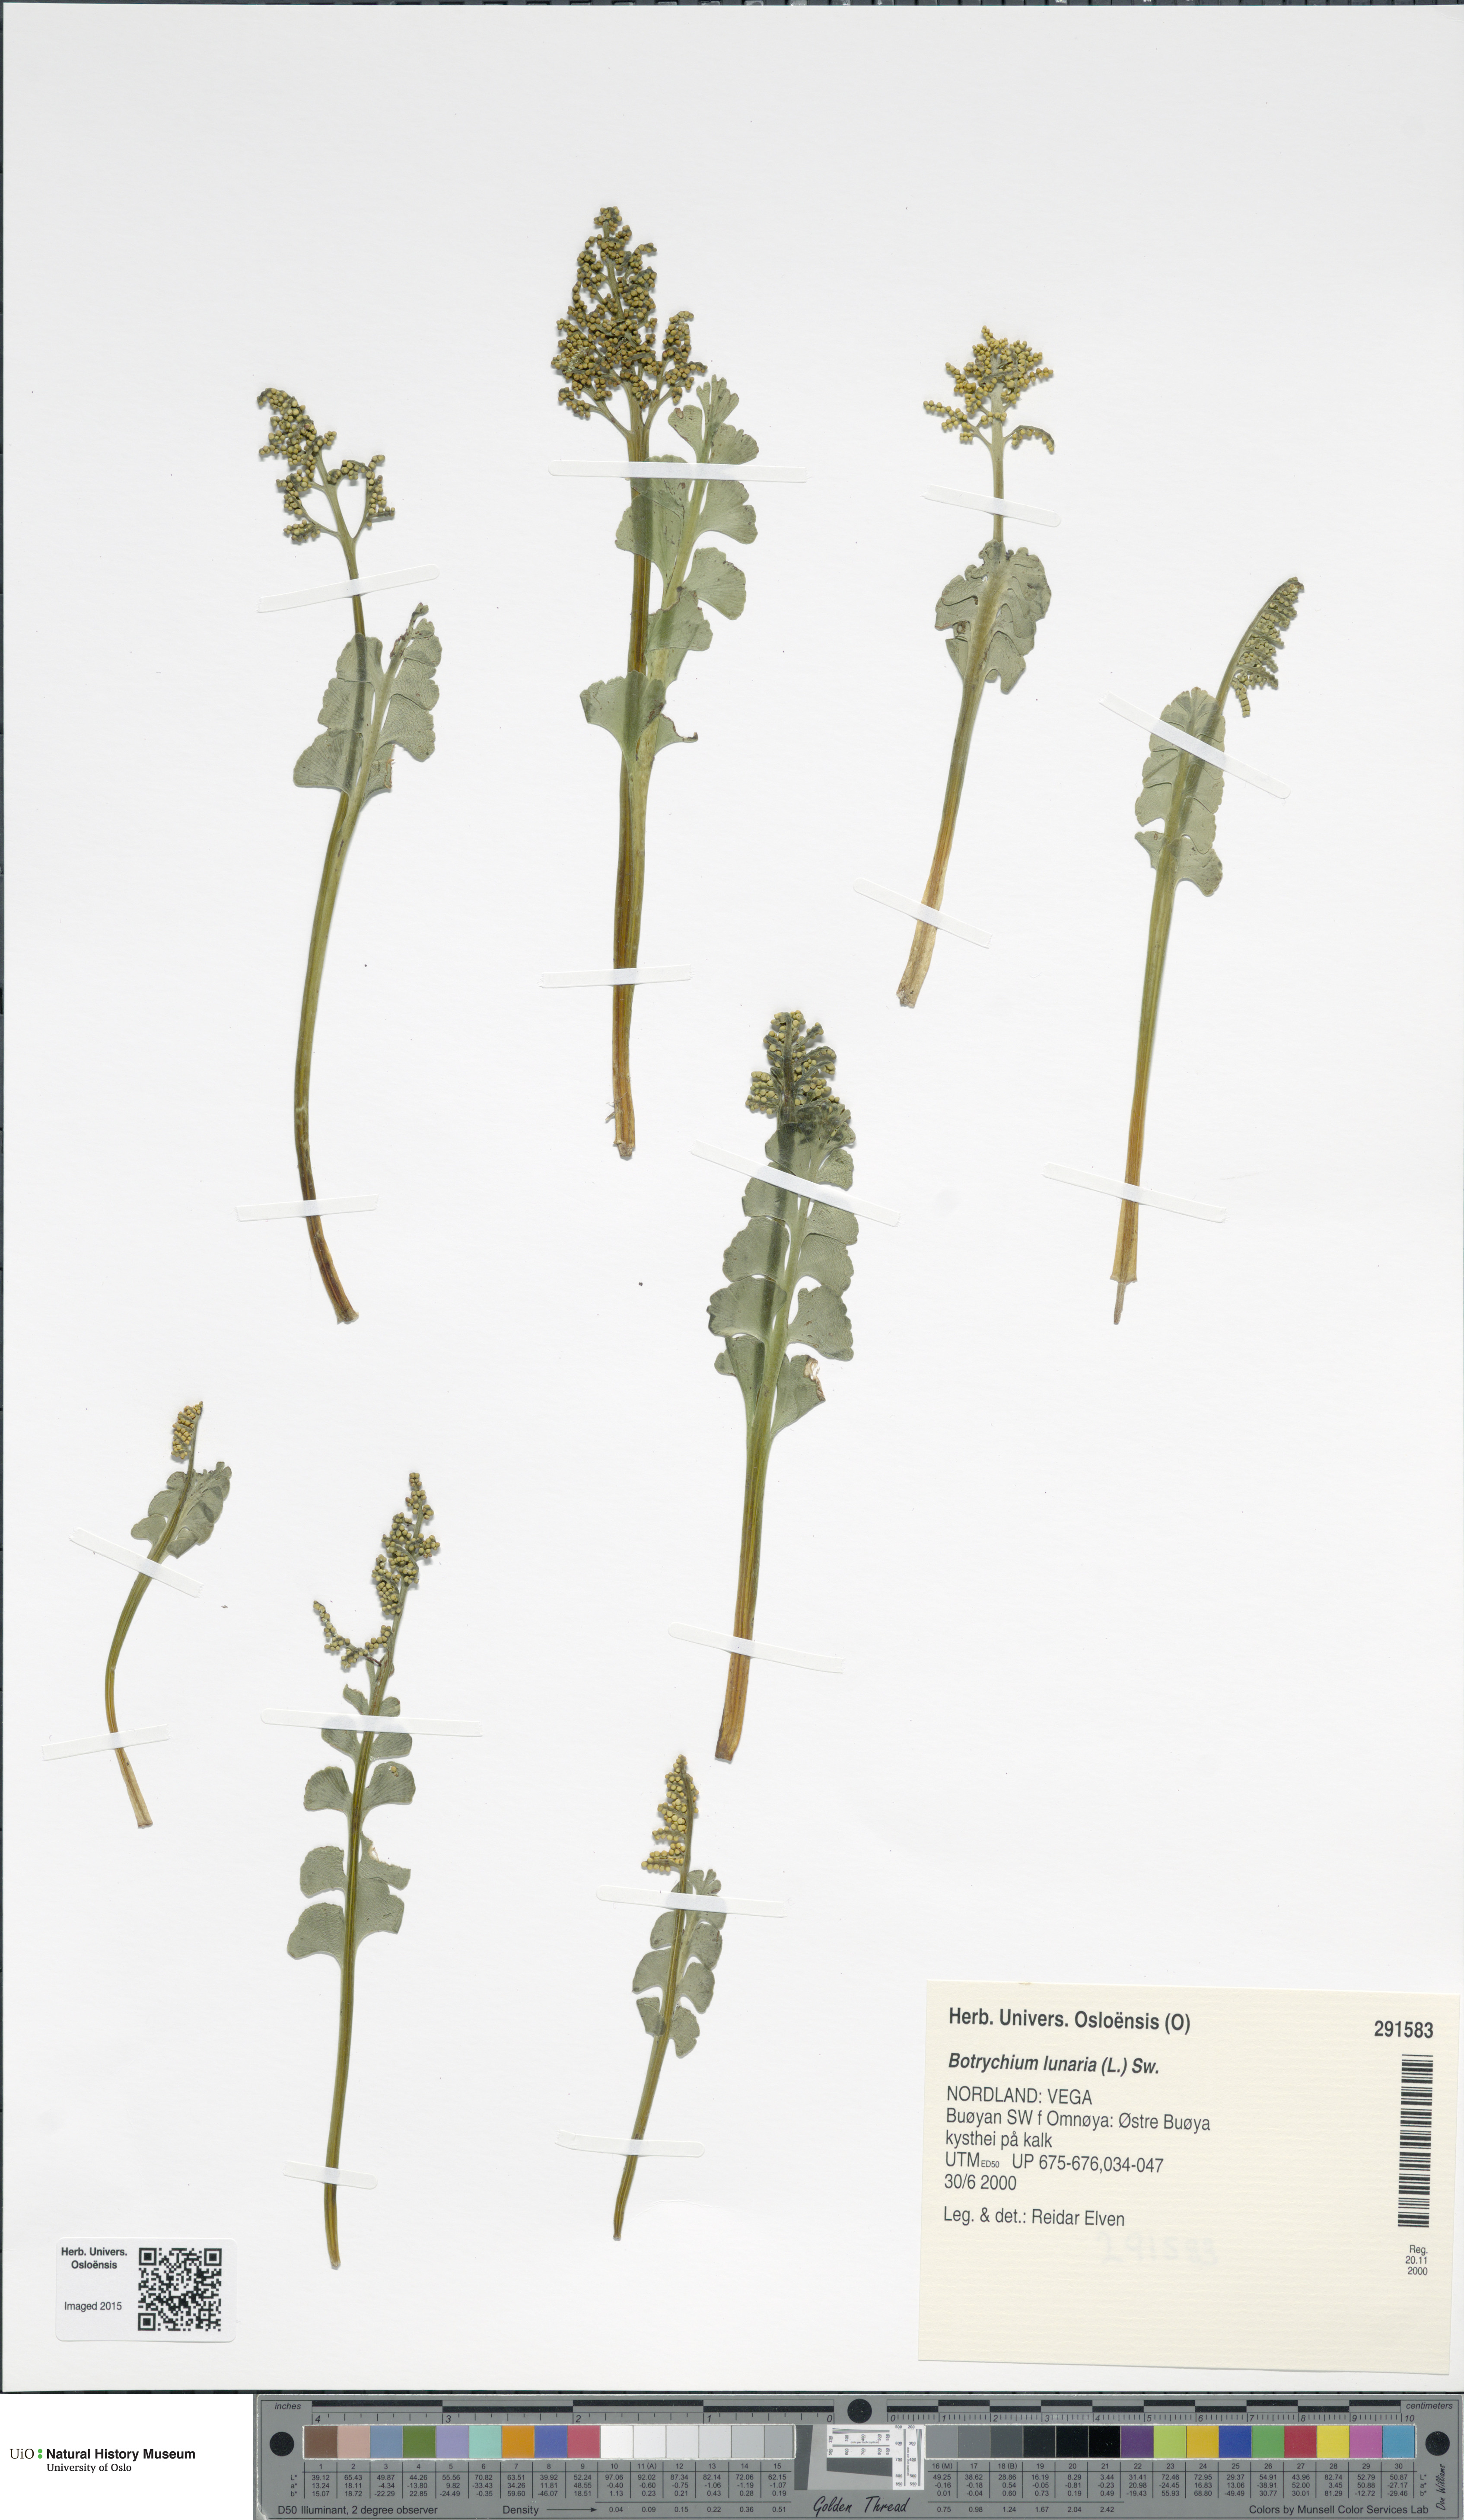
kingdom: Plantae
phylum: Tracheophyta
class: Polypodiopsida
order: Ophioglossales
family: Ophioglossaceae
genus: Botrychium
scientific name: Botrychium lunaria
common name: Moonwort
